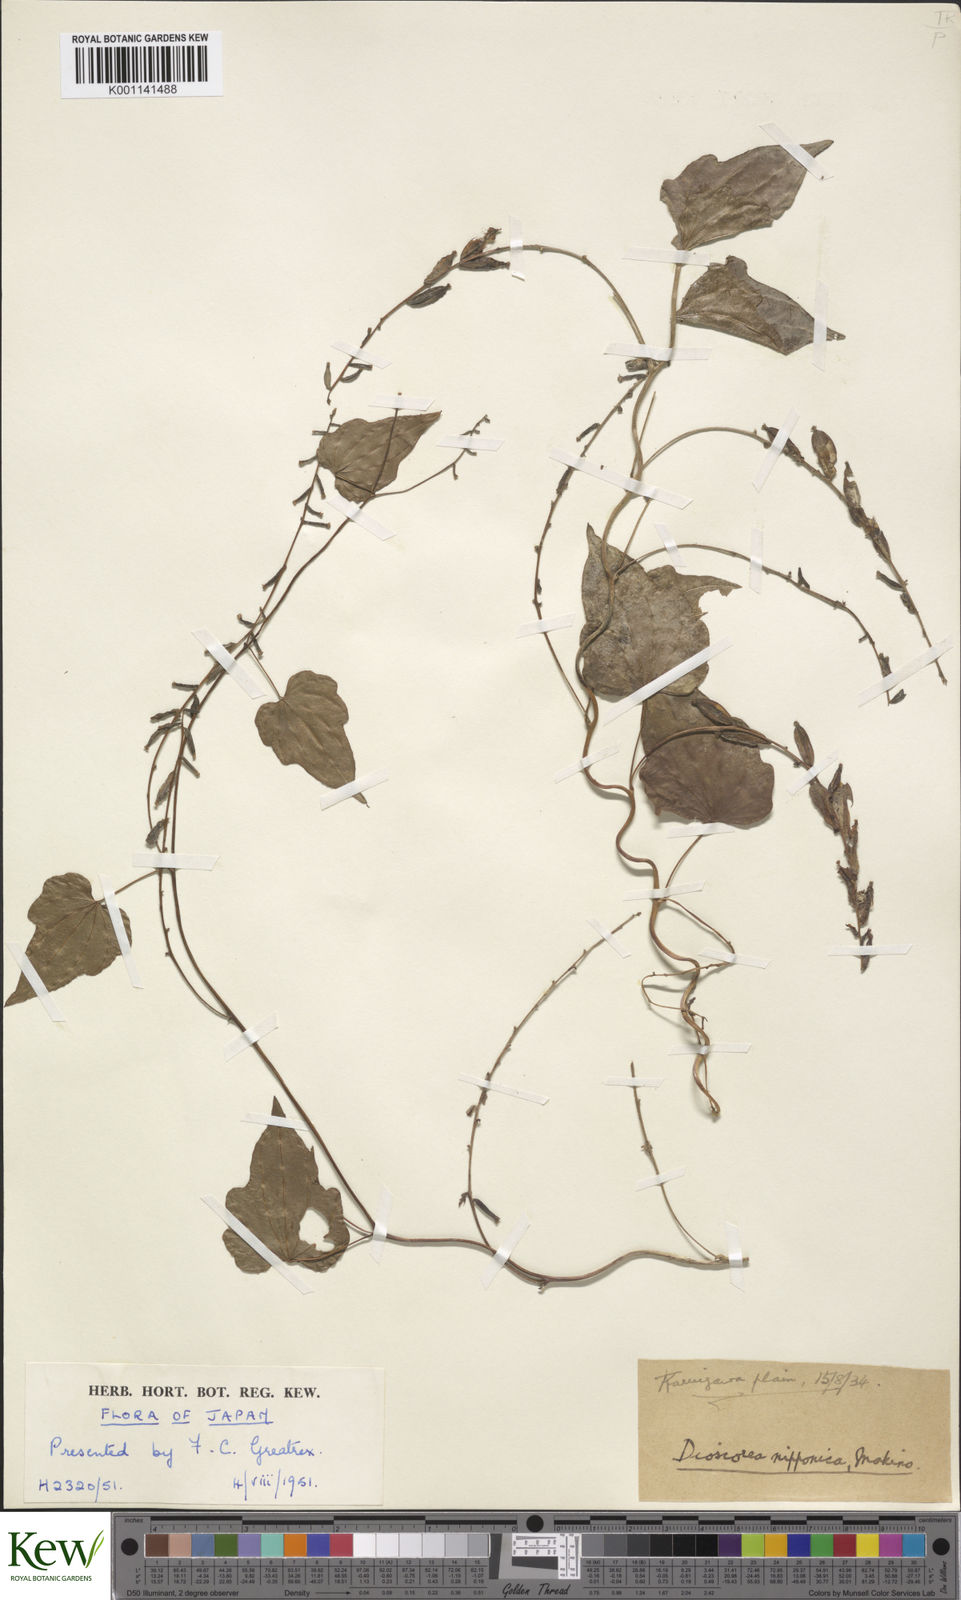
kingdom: Plantae
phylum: Tracheophyta
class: Liliopsida
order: Dioscoreales
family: Dioscoreaceae
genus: Dioscorea
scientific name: Dioscorea nipponica
